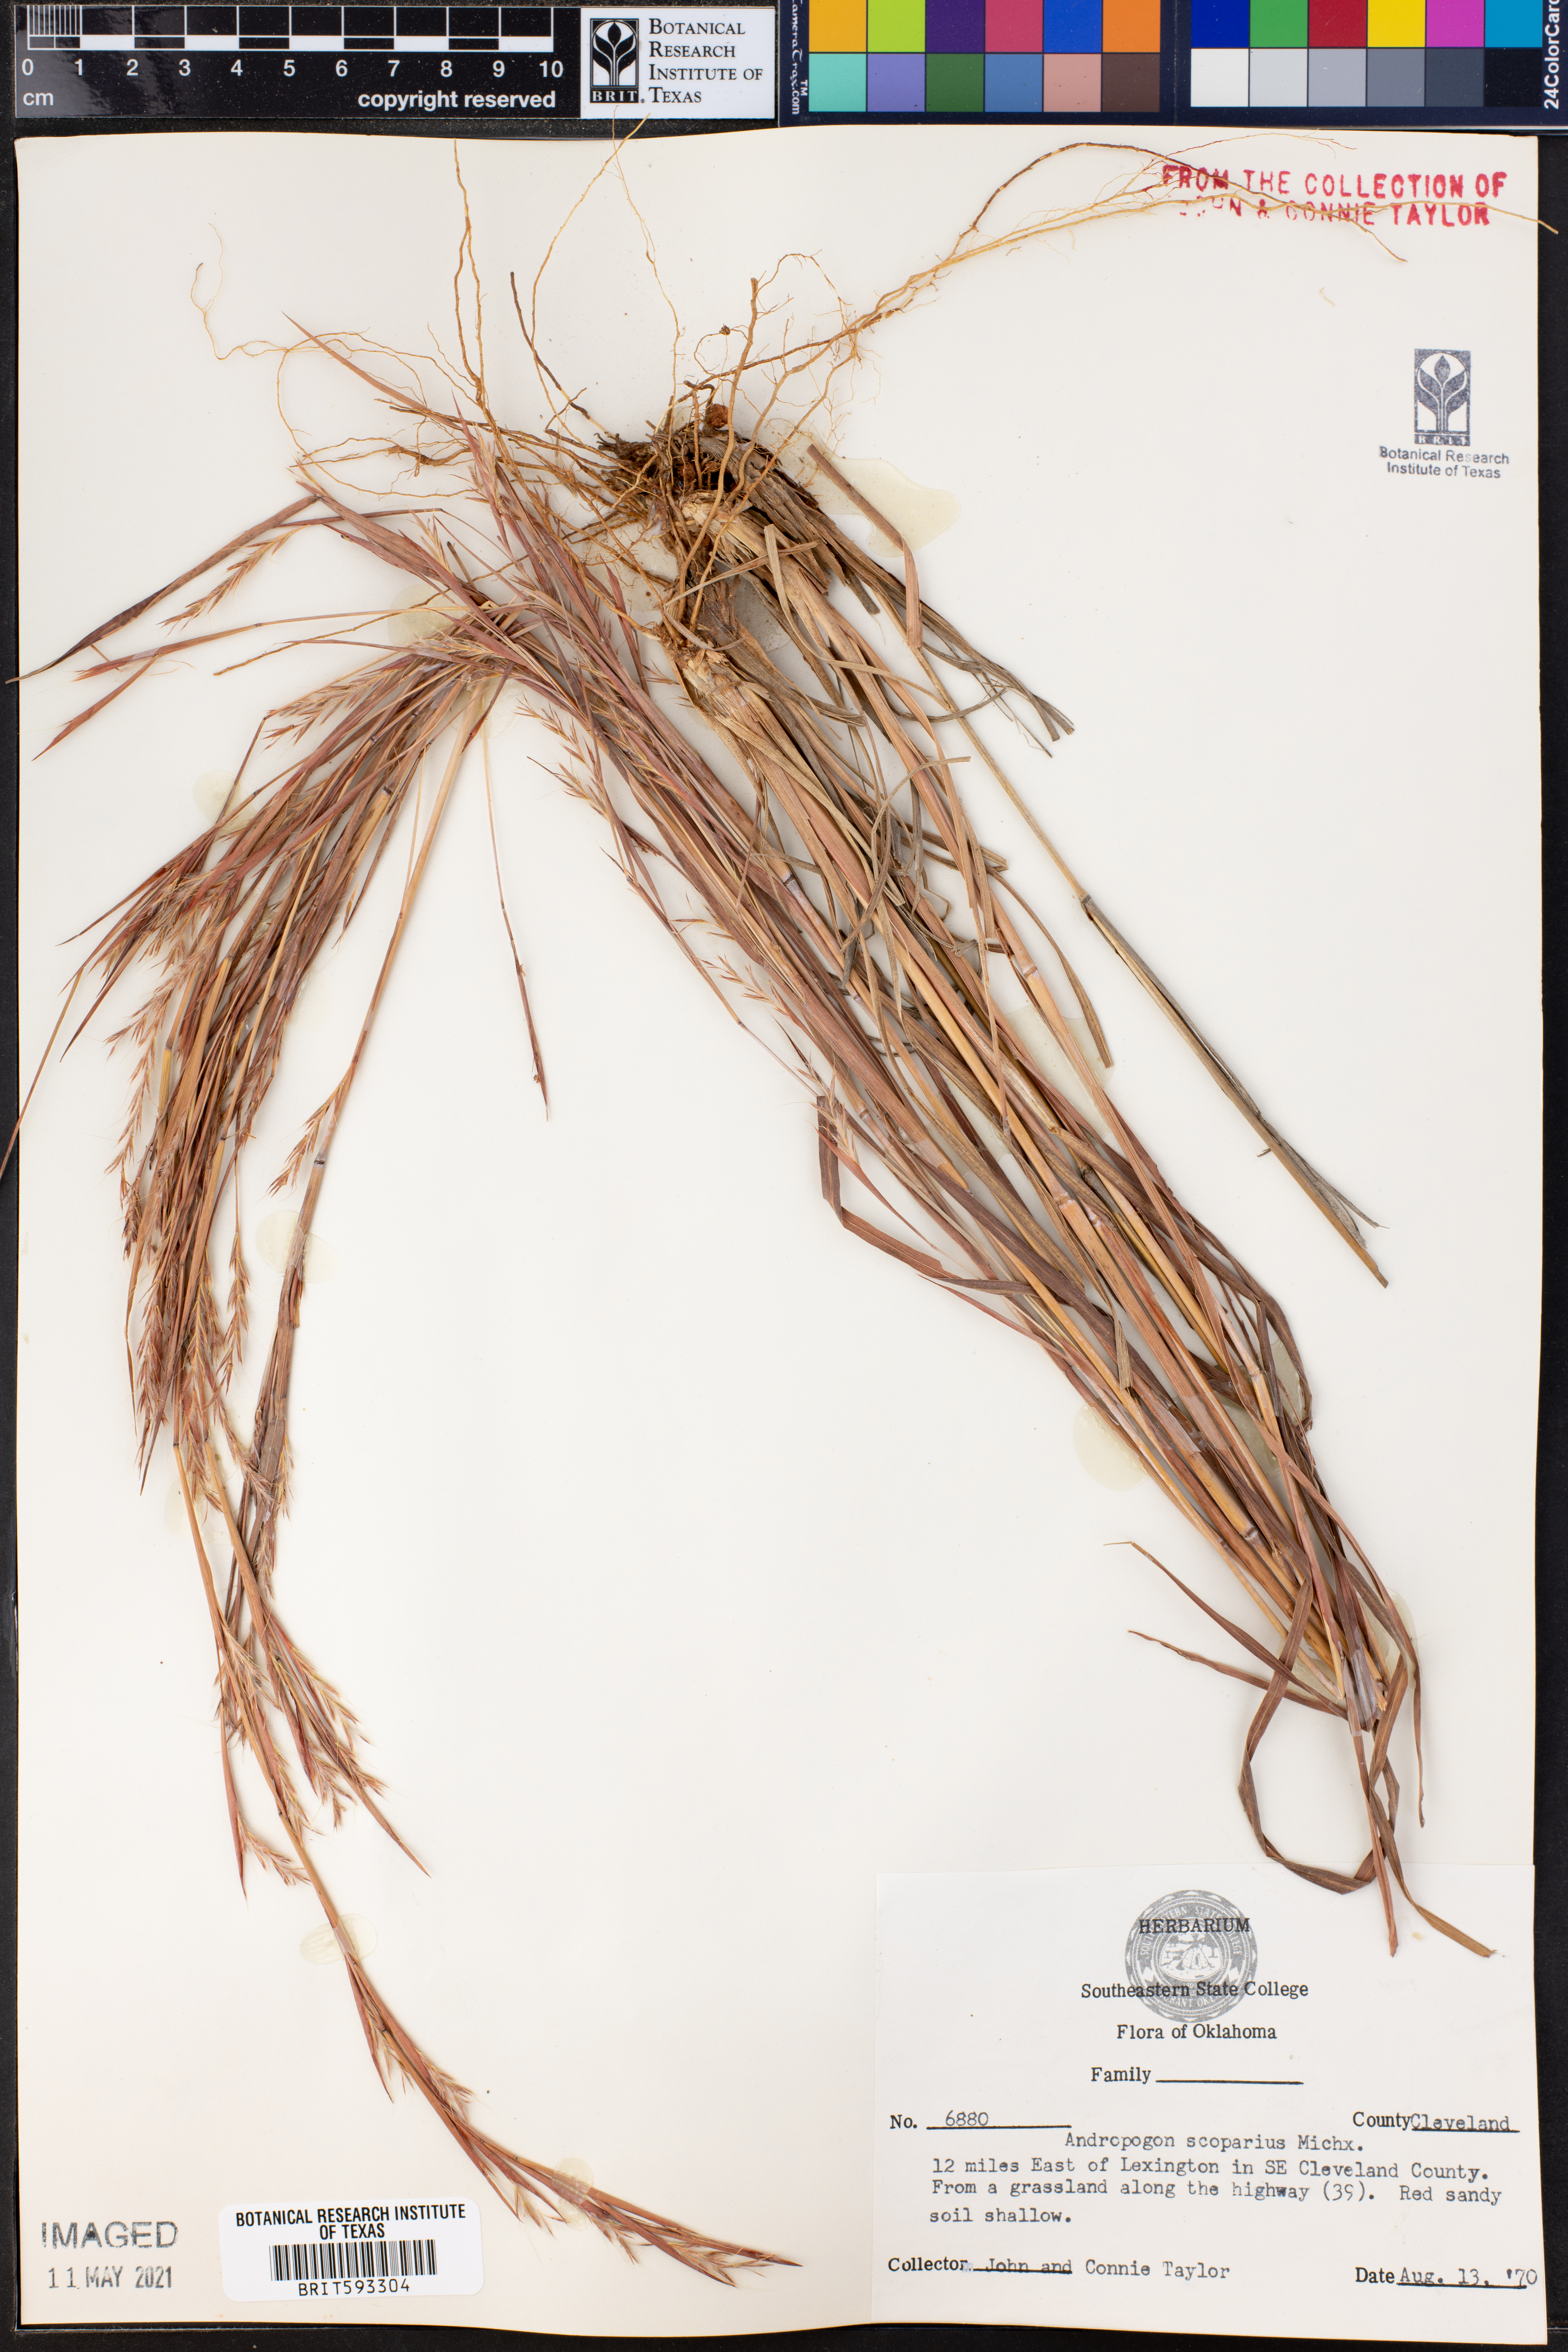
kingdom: Plantae
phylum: Tracheophyta
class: Liliopsida
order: Poales
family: Poaceae
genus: Schizachyrium
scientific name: Schizachyrium scoparium
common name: Little bluestem
